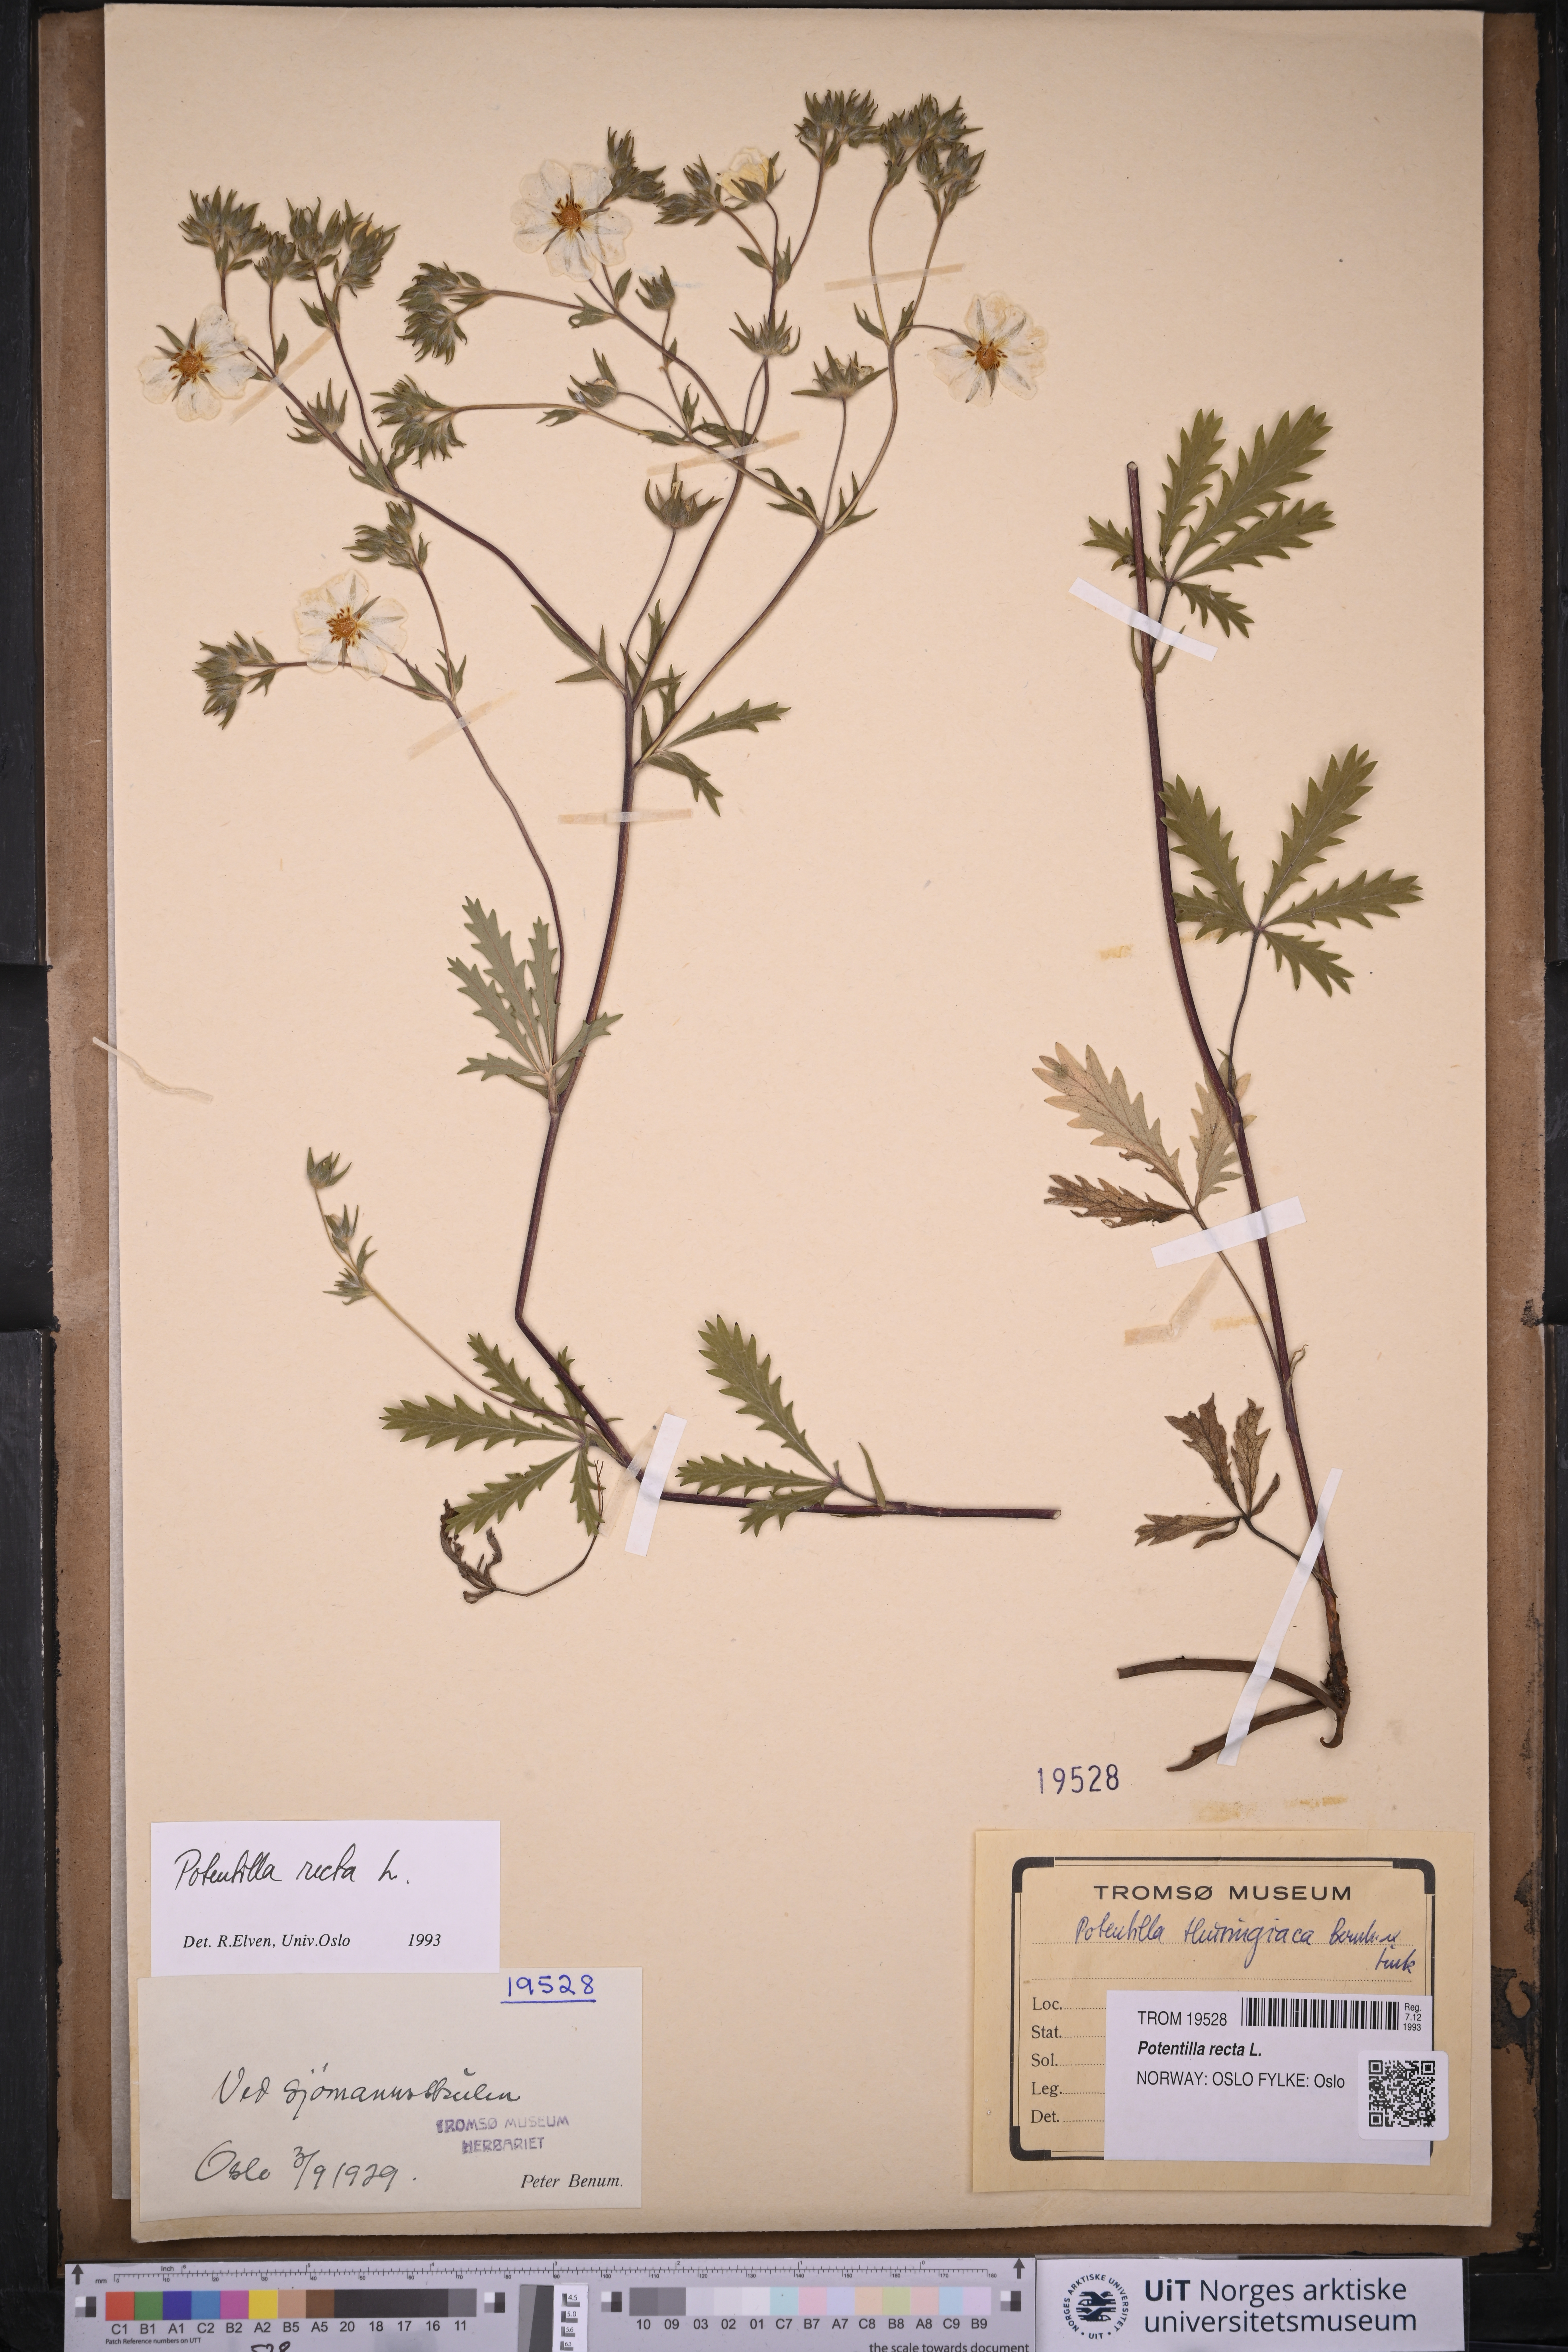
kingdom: Plantae
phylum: Tracheophyta
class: Magnoliopsida
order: Rosales
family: Rosaceae
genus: Potentilla
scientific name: Potentilla recta
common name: Sulphur cinquefoil
